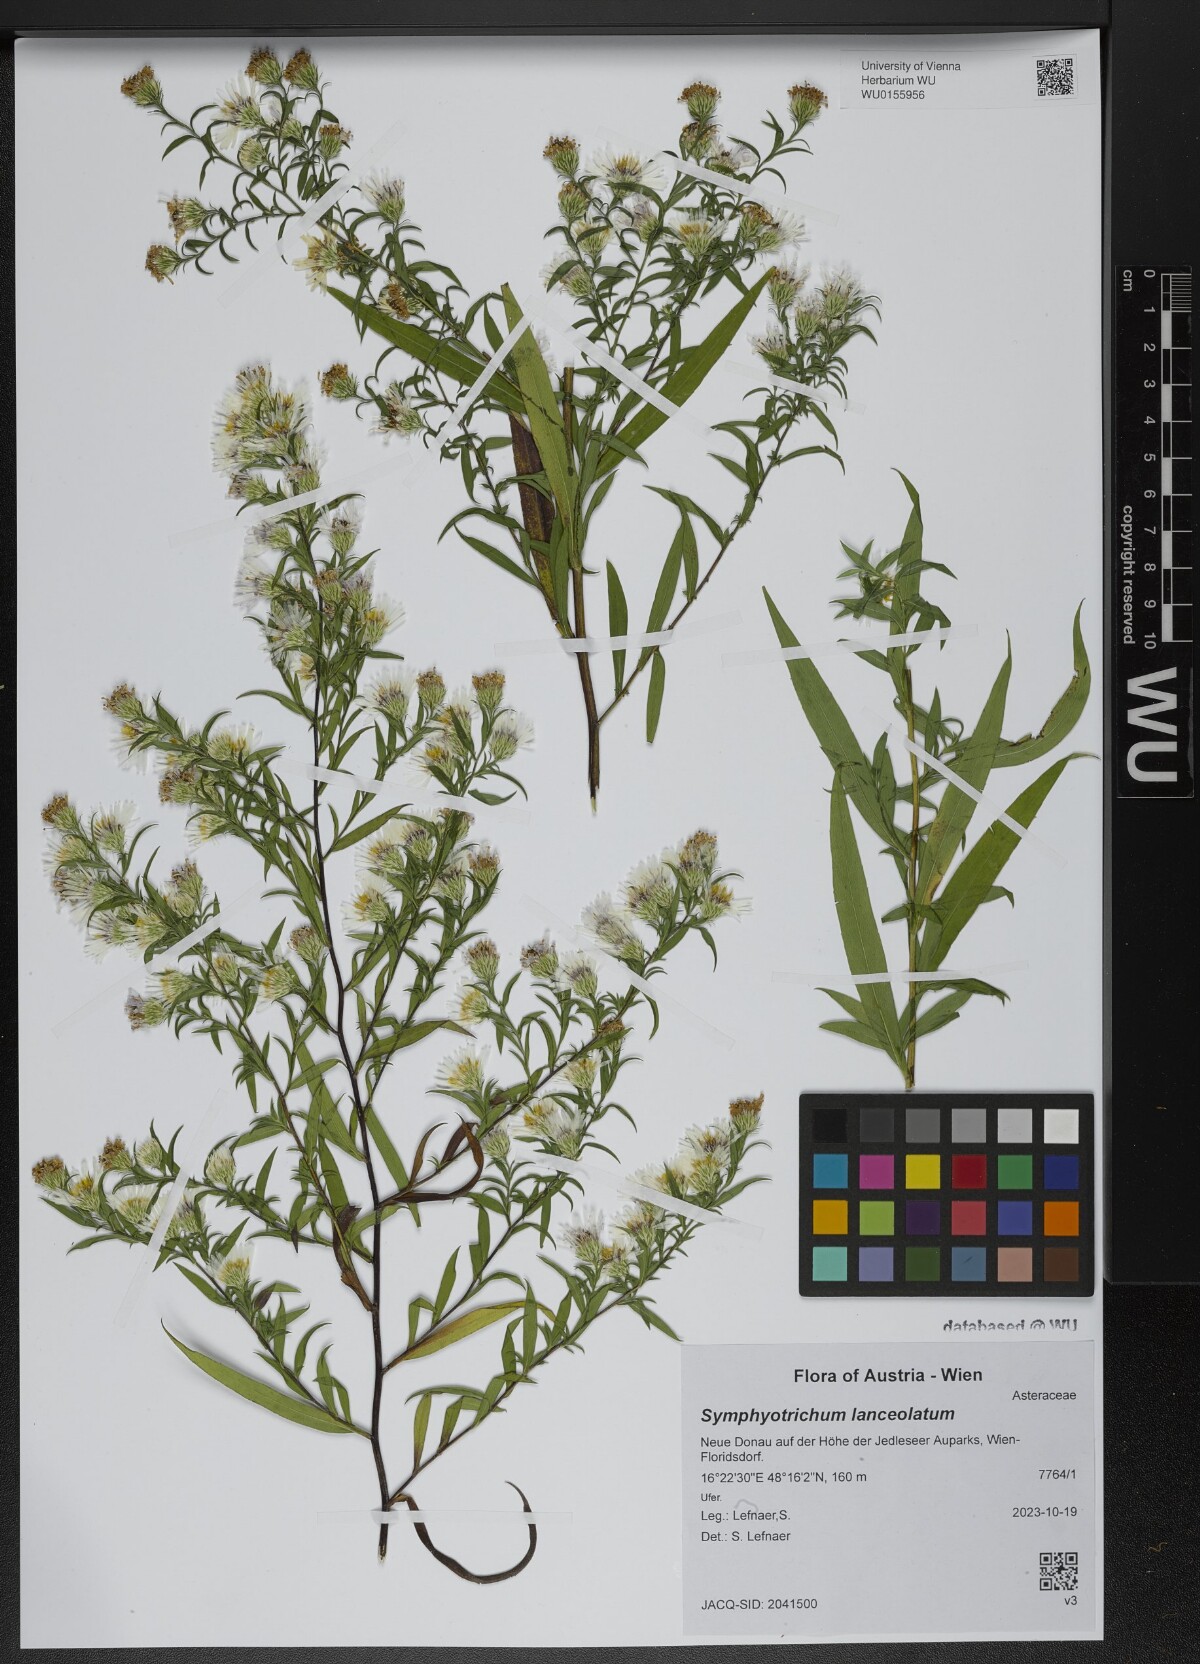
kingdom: Plantae
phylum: Tracheophyta
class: Magnoliopsida
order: Asterales
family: Asteraceae
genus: Symphyotrichum
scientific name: Symphyotrichum lanceolatum
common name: Panicled aster
